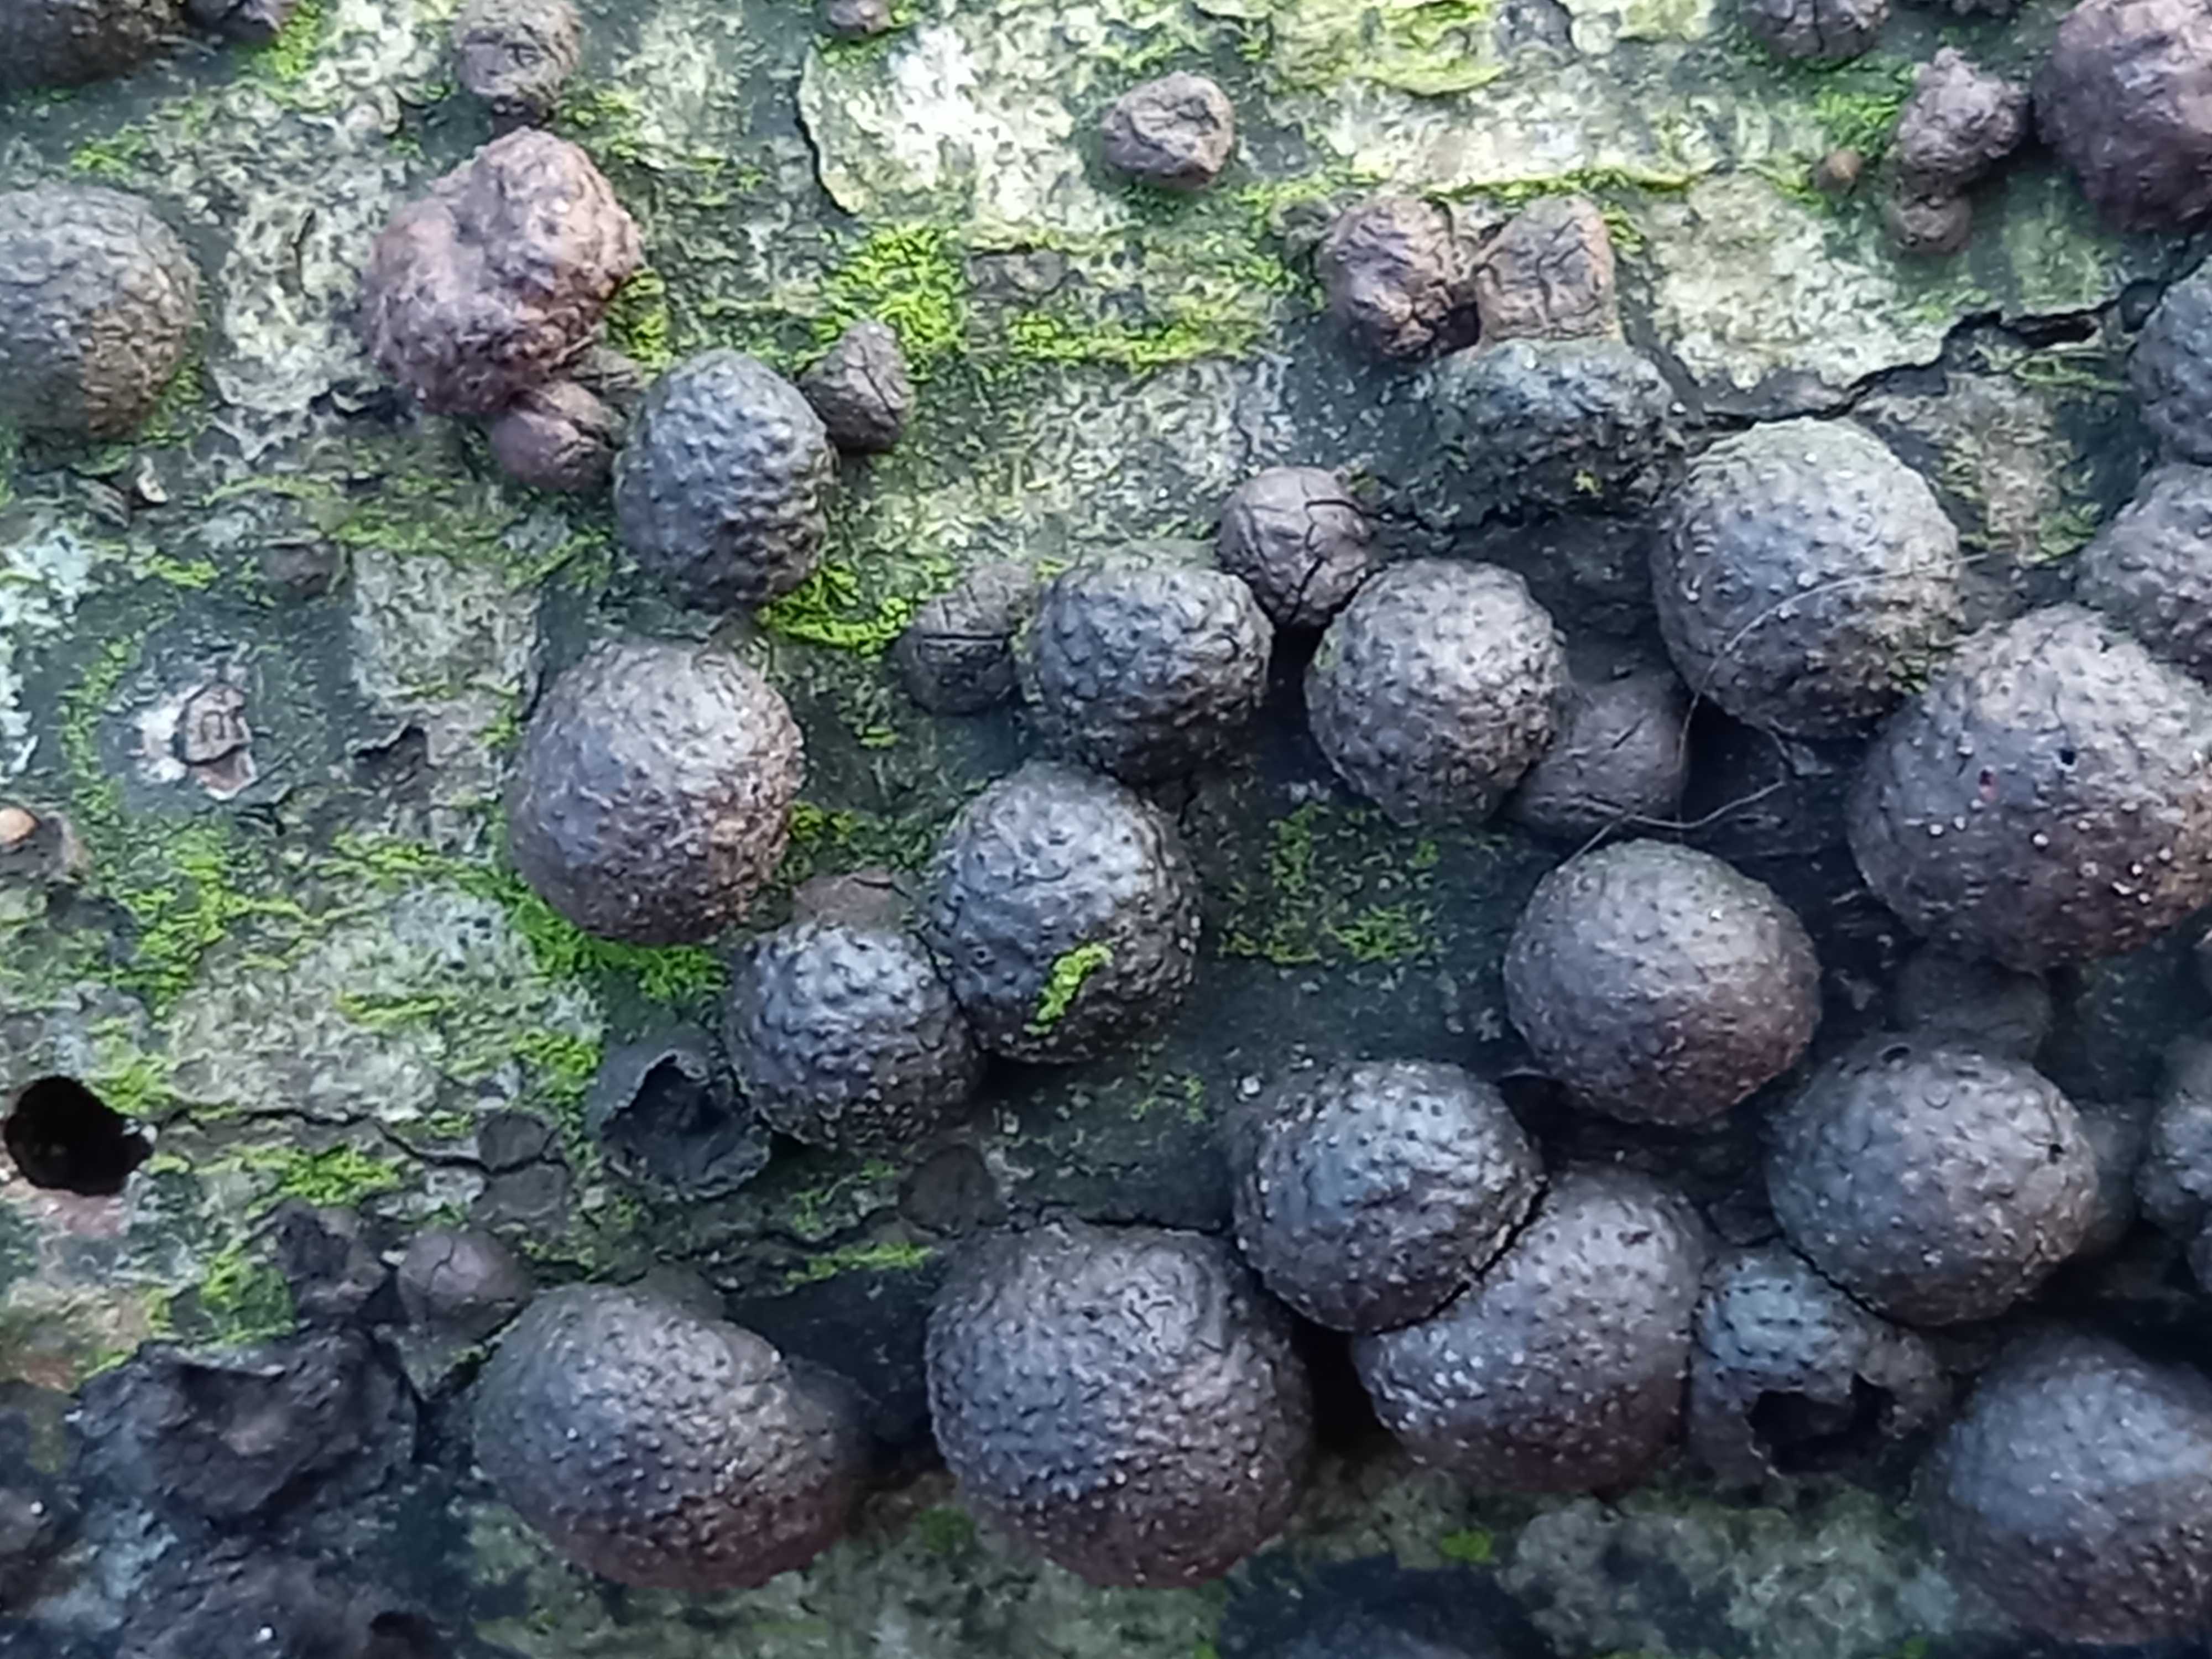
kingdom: Fungi
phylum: Ascomycota
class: Sordariomycetes
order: Xylariales
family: Hypoxylaceae
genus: Hypoxylon
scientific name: Hypoxylon fragiforme
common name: kuljordbær
